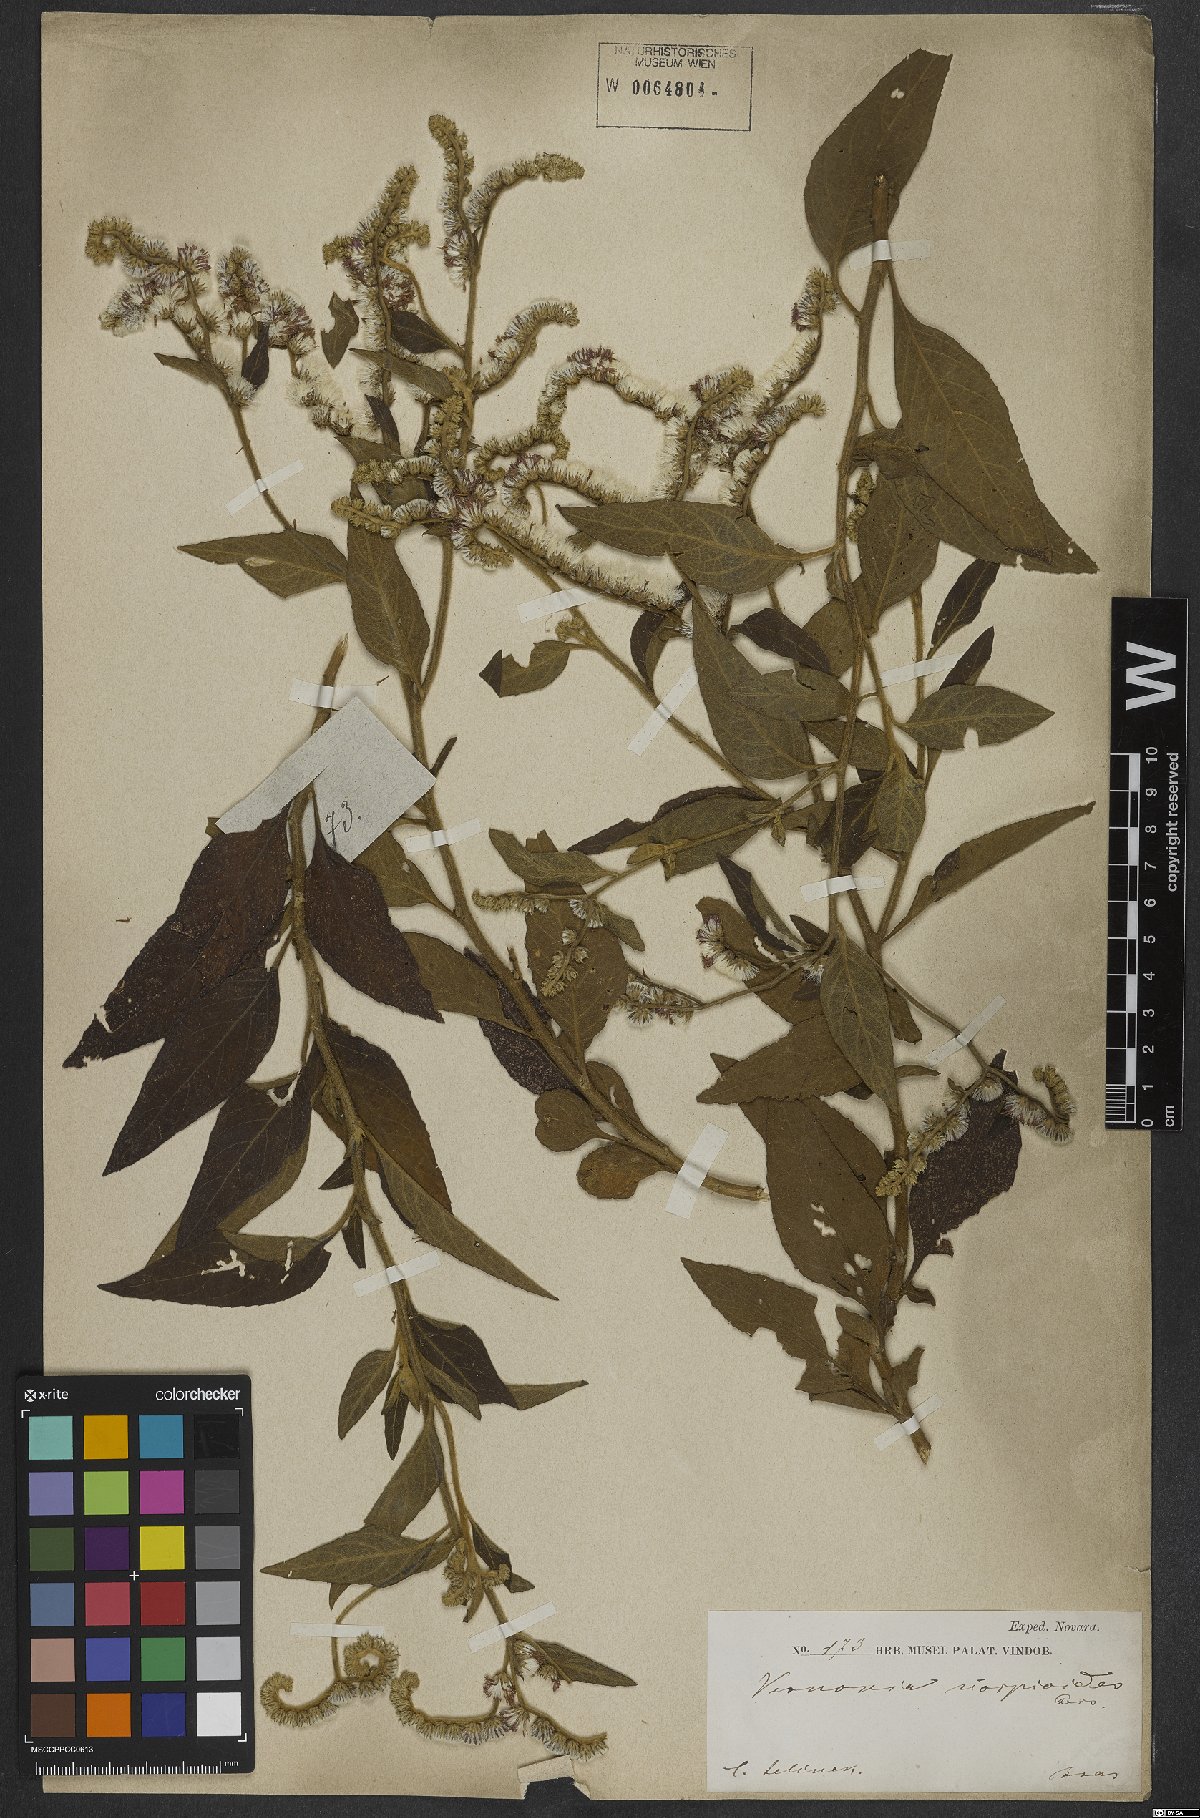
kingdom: Plantae
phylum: Tracheophyta
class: Magnoliopsida
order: Asterales
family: Asteraceae
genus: Cyrtocymura
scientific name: Cyrtocymura scorpioides
